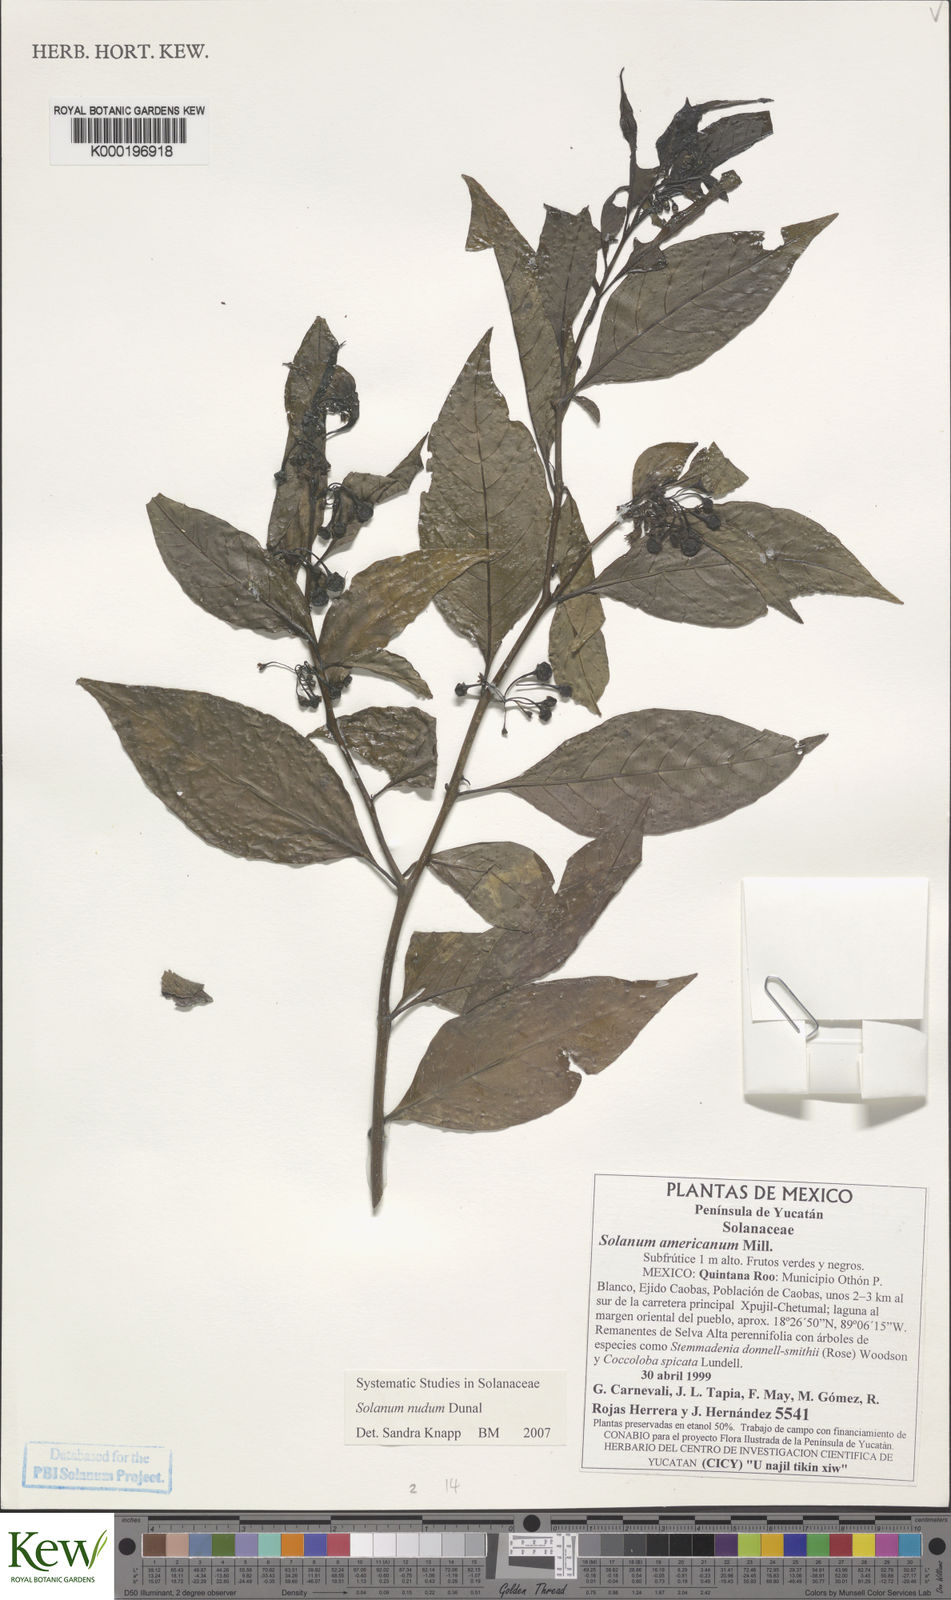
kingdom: Plantae
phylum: Tracheophyta
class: Magnoliopsida
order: Solanales
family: Solanaceae
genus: Solanum
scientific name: Solanum nudum
